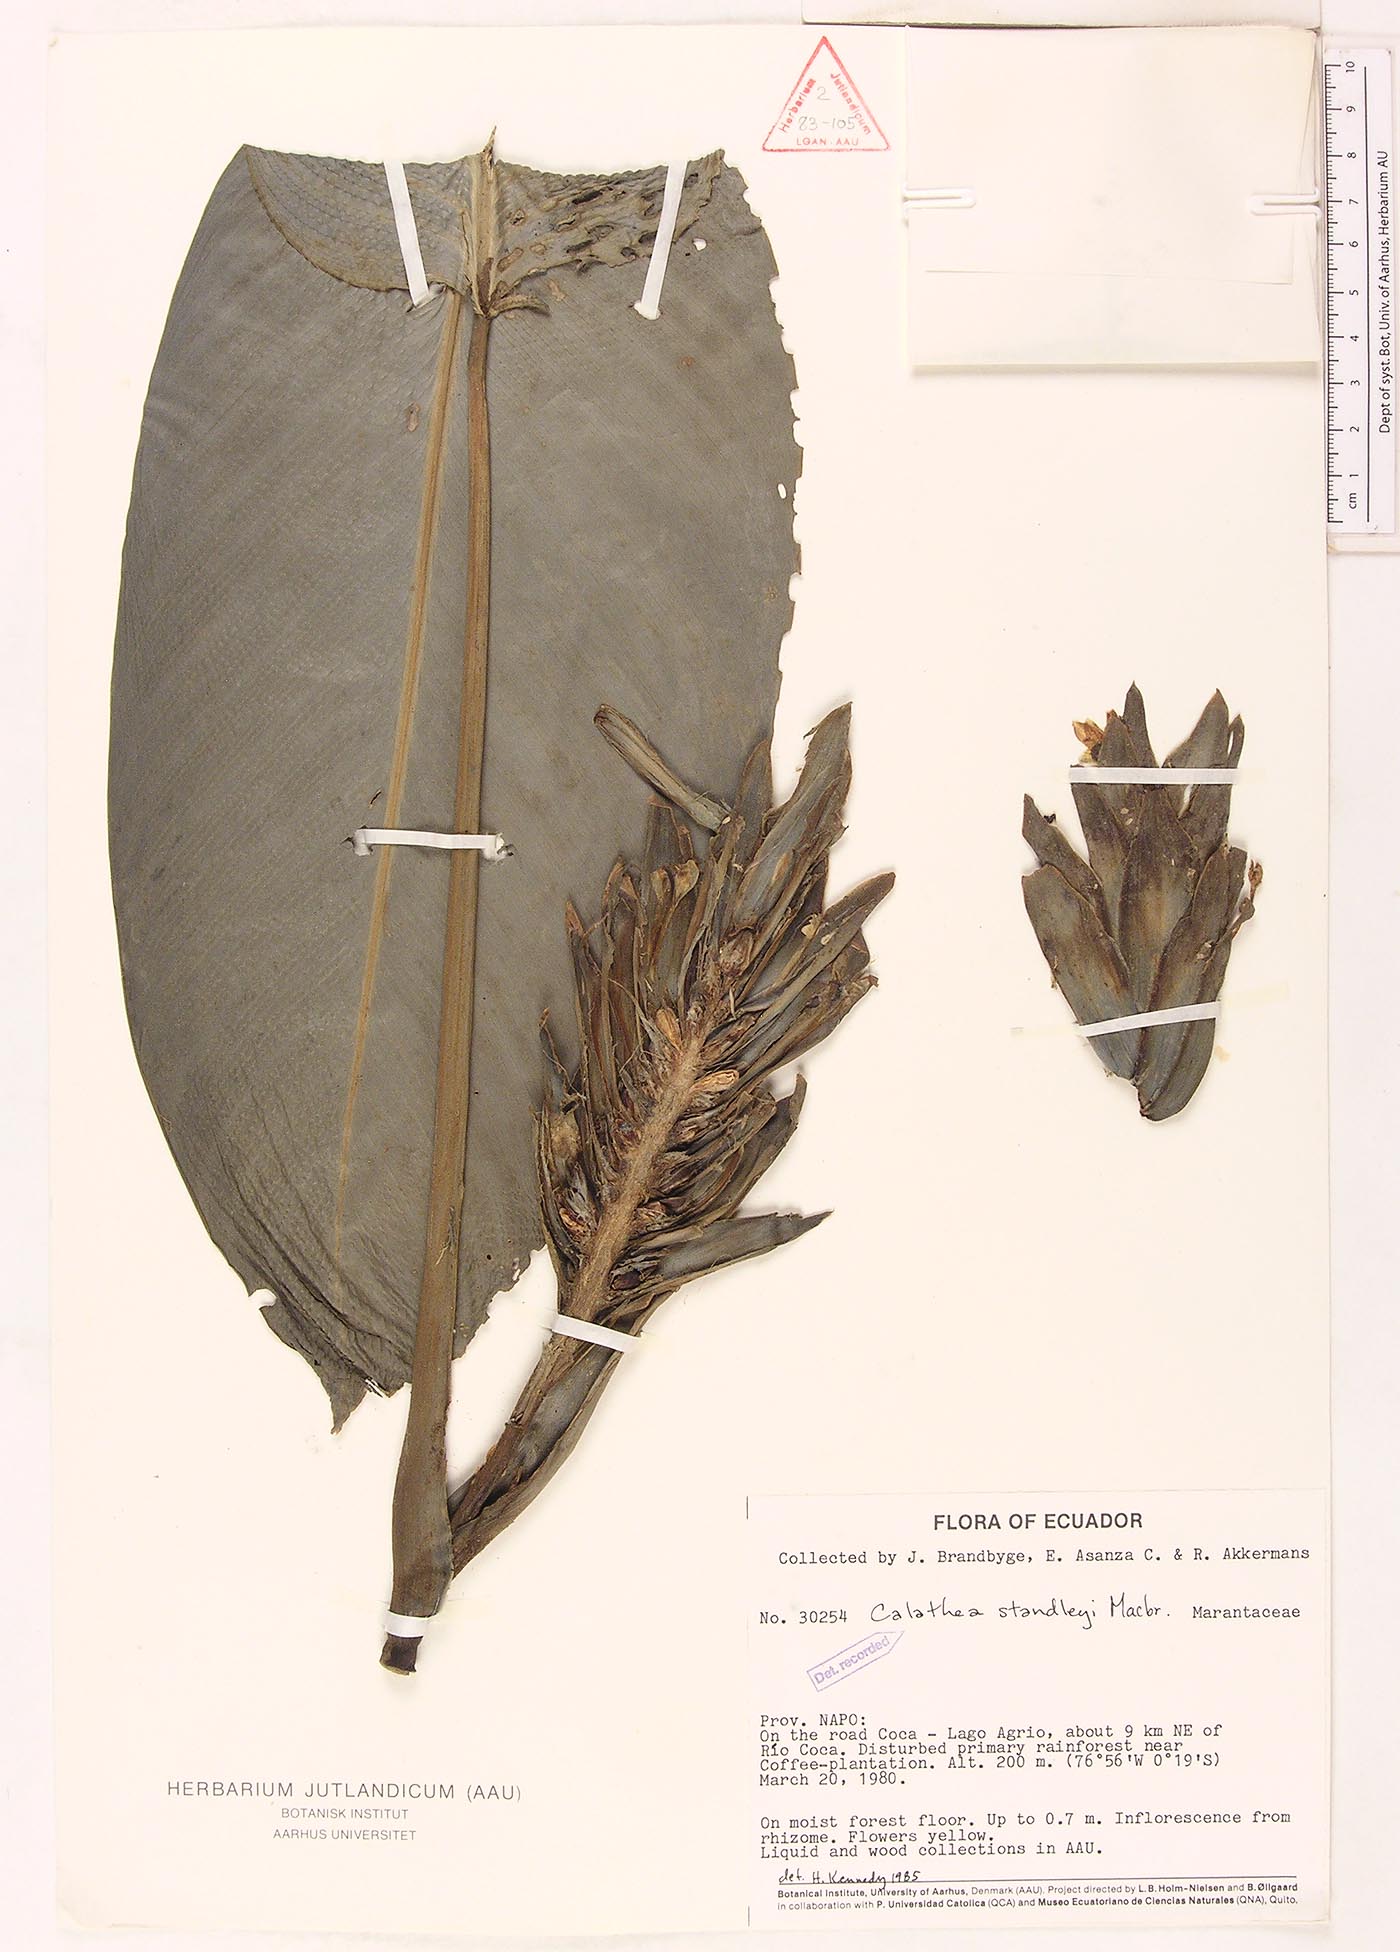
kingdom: Plantae
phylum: Tracheophyta
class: Liliopsida
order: Zingiberales
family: Marantaceae
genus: Goeppertia
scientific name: Goeppertia standleyi
